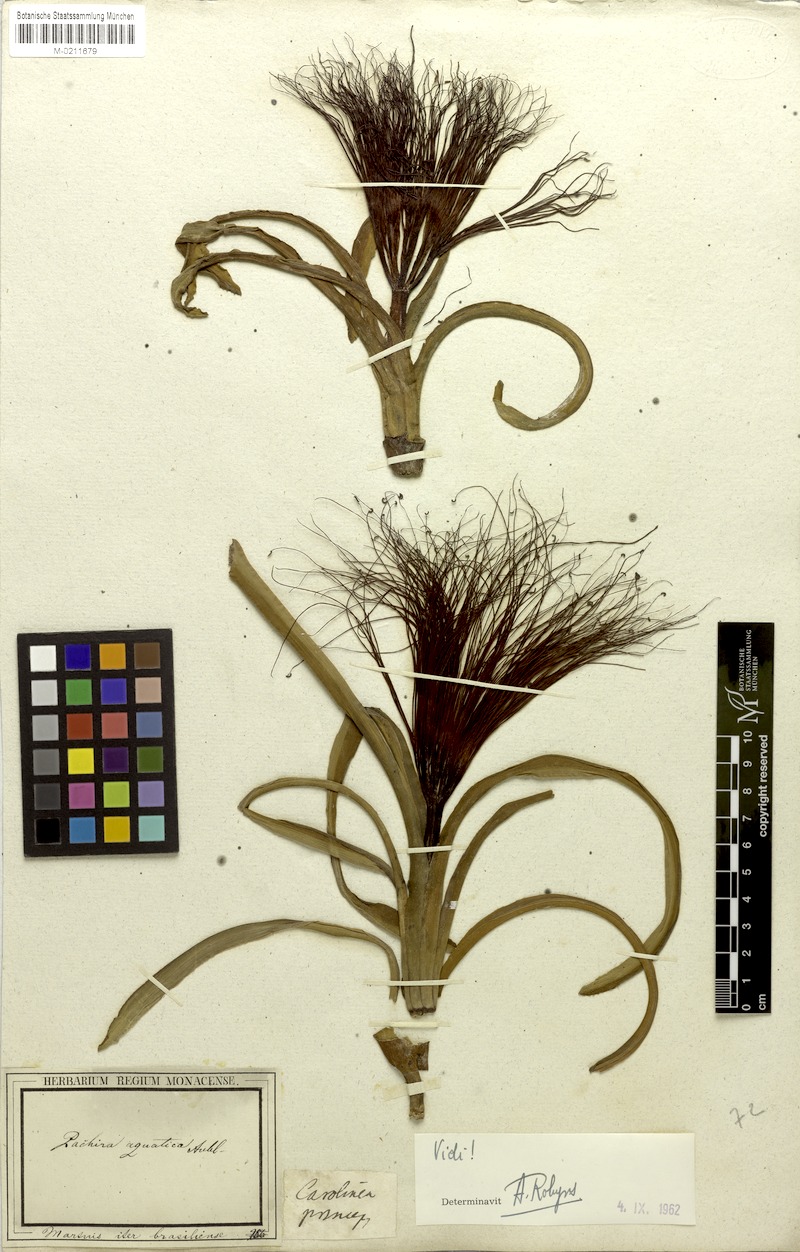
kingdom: Plantae
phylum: Tracheophyta
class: Magnoliopsida
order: Malvales
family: Malvaceae
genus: Pachira
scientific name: Pachira aquatica
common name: Provision-tree
